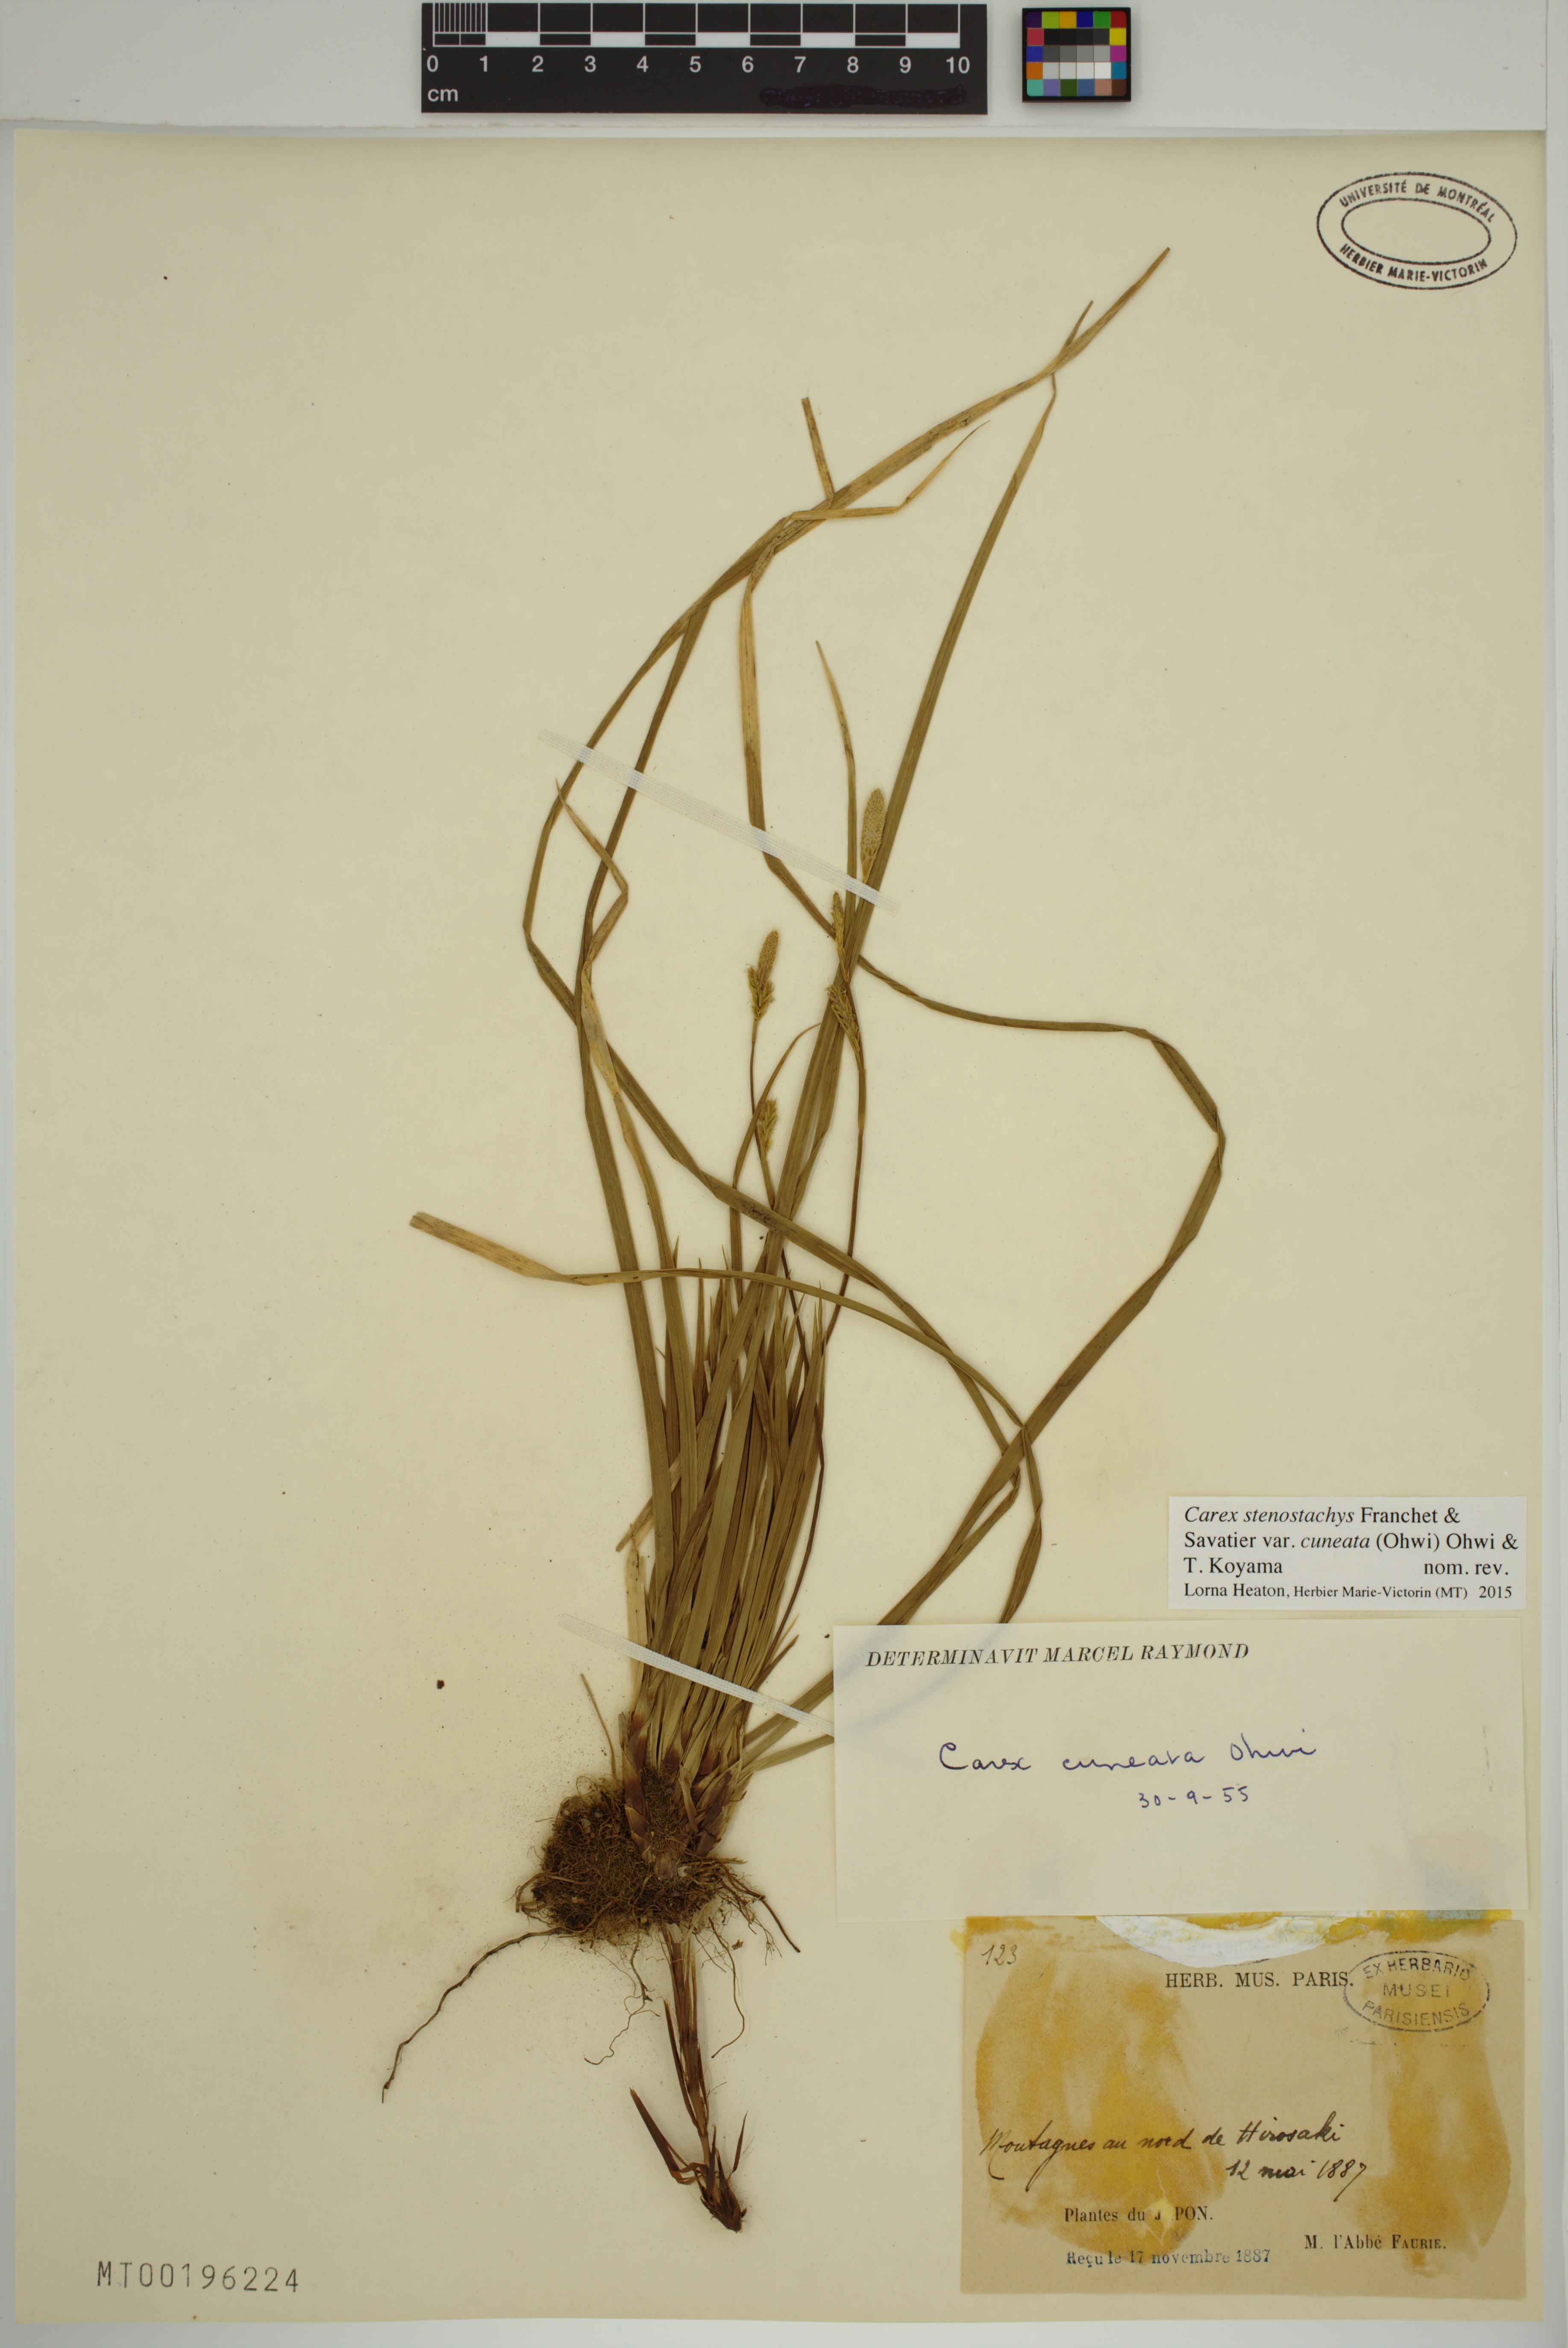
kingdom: Plantae
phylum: Tracheophyta
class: Liliopsida
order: Poales
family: Cyperaceae
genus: Carex
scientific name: Carex stenostachys
